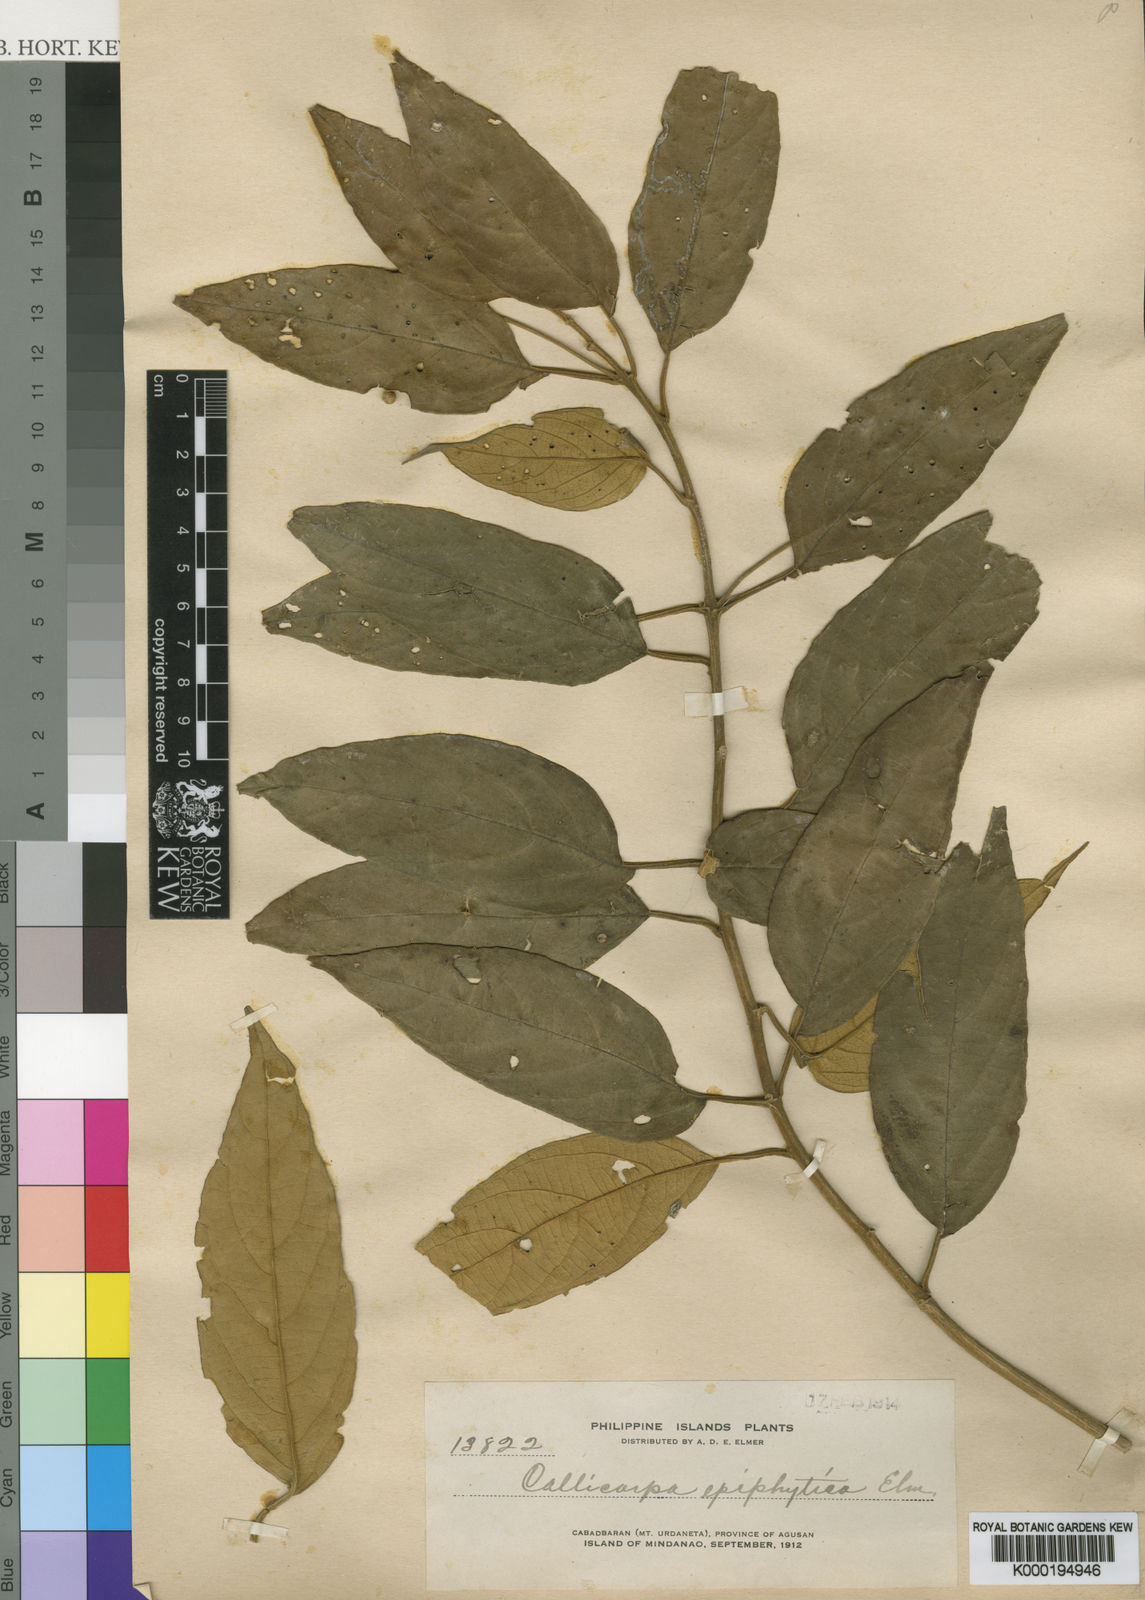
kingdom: Plantae
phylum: Tracheophyta
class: Magnoliopsida
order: Lamiales
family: Lamiaceae
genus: Callicarpa
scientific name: Callicarpa pentandra
